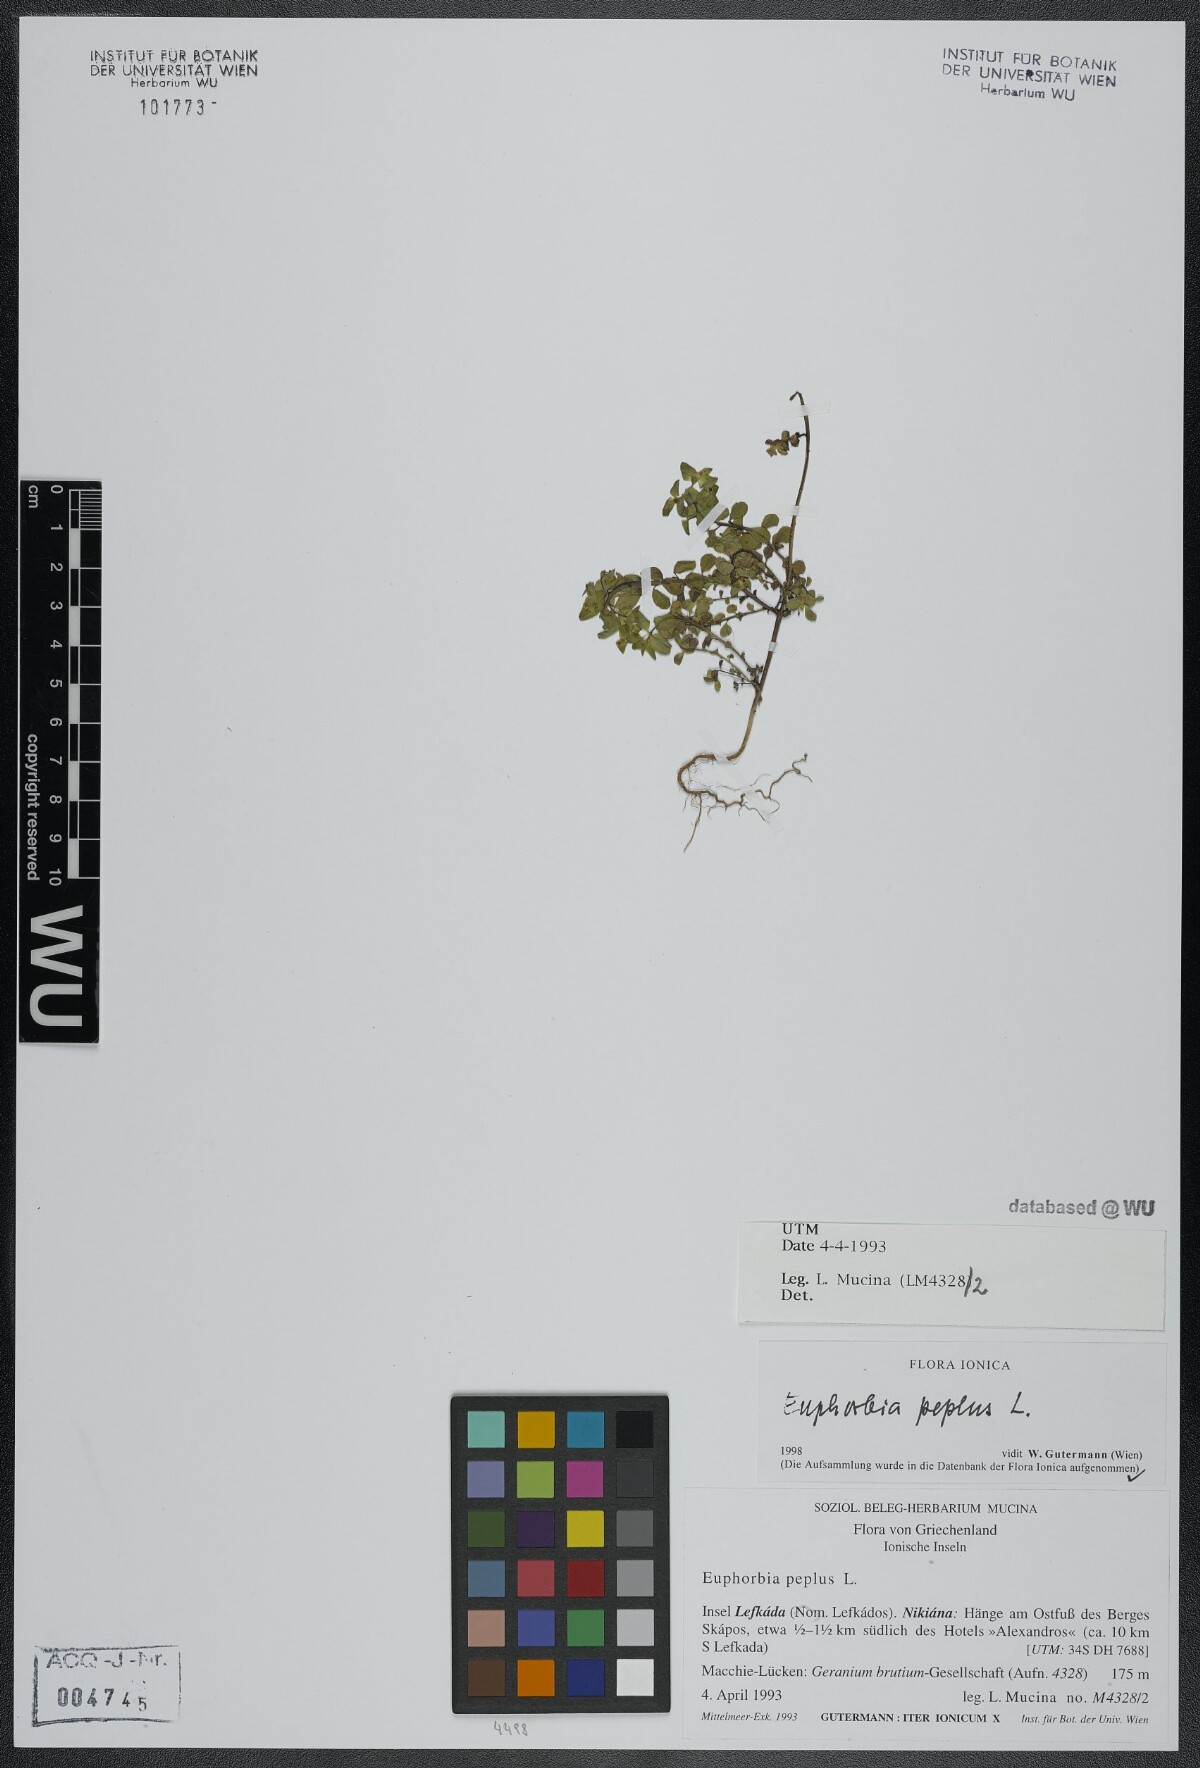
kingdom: Plantae
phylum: Tracheophyta
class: Magnoliopsida
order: Malpighiales
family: Euphorbiaceae
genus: Euphorbia
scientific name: Euphorbia peplus
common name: Petty spurge
